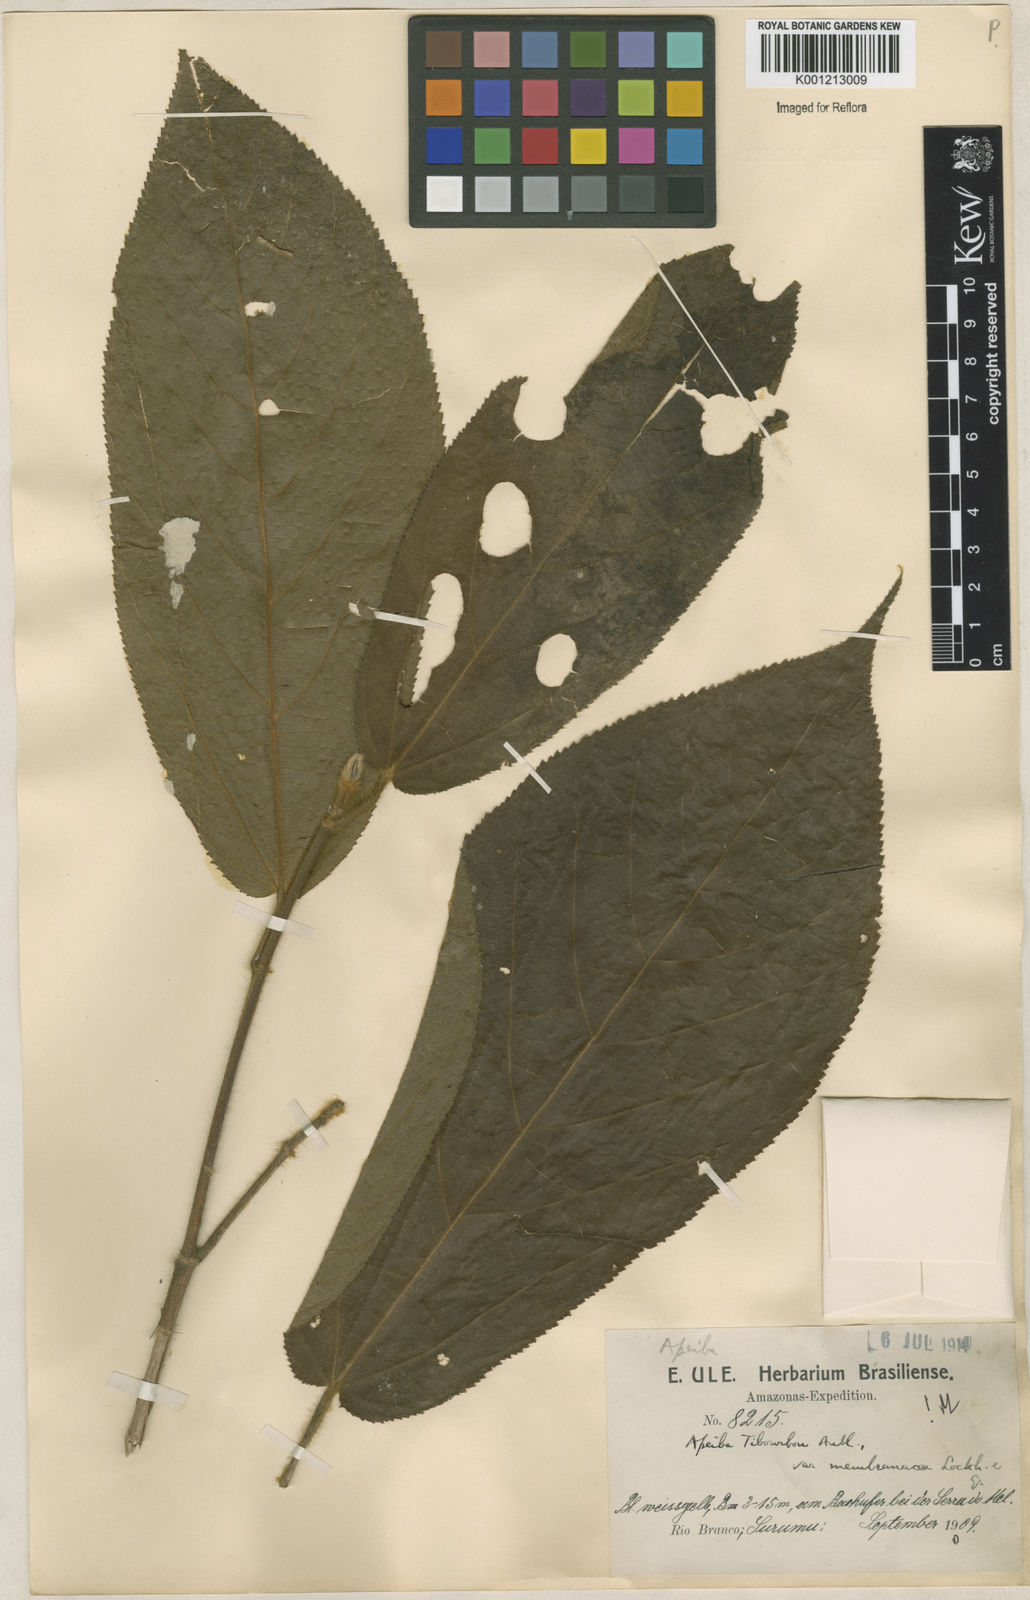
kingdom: Plantae
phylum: Tracheophyta
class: Magnoliopsida
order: Malvales
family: Malvaceae
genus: Apeiba
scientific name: Apeiba schomburgkii
